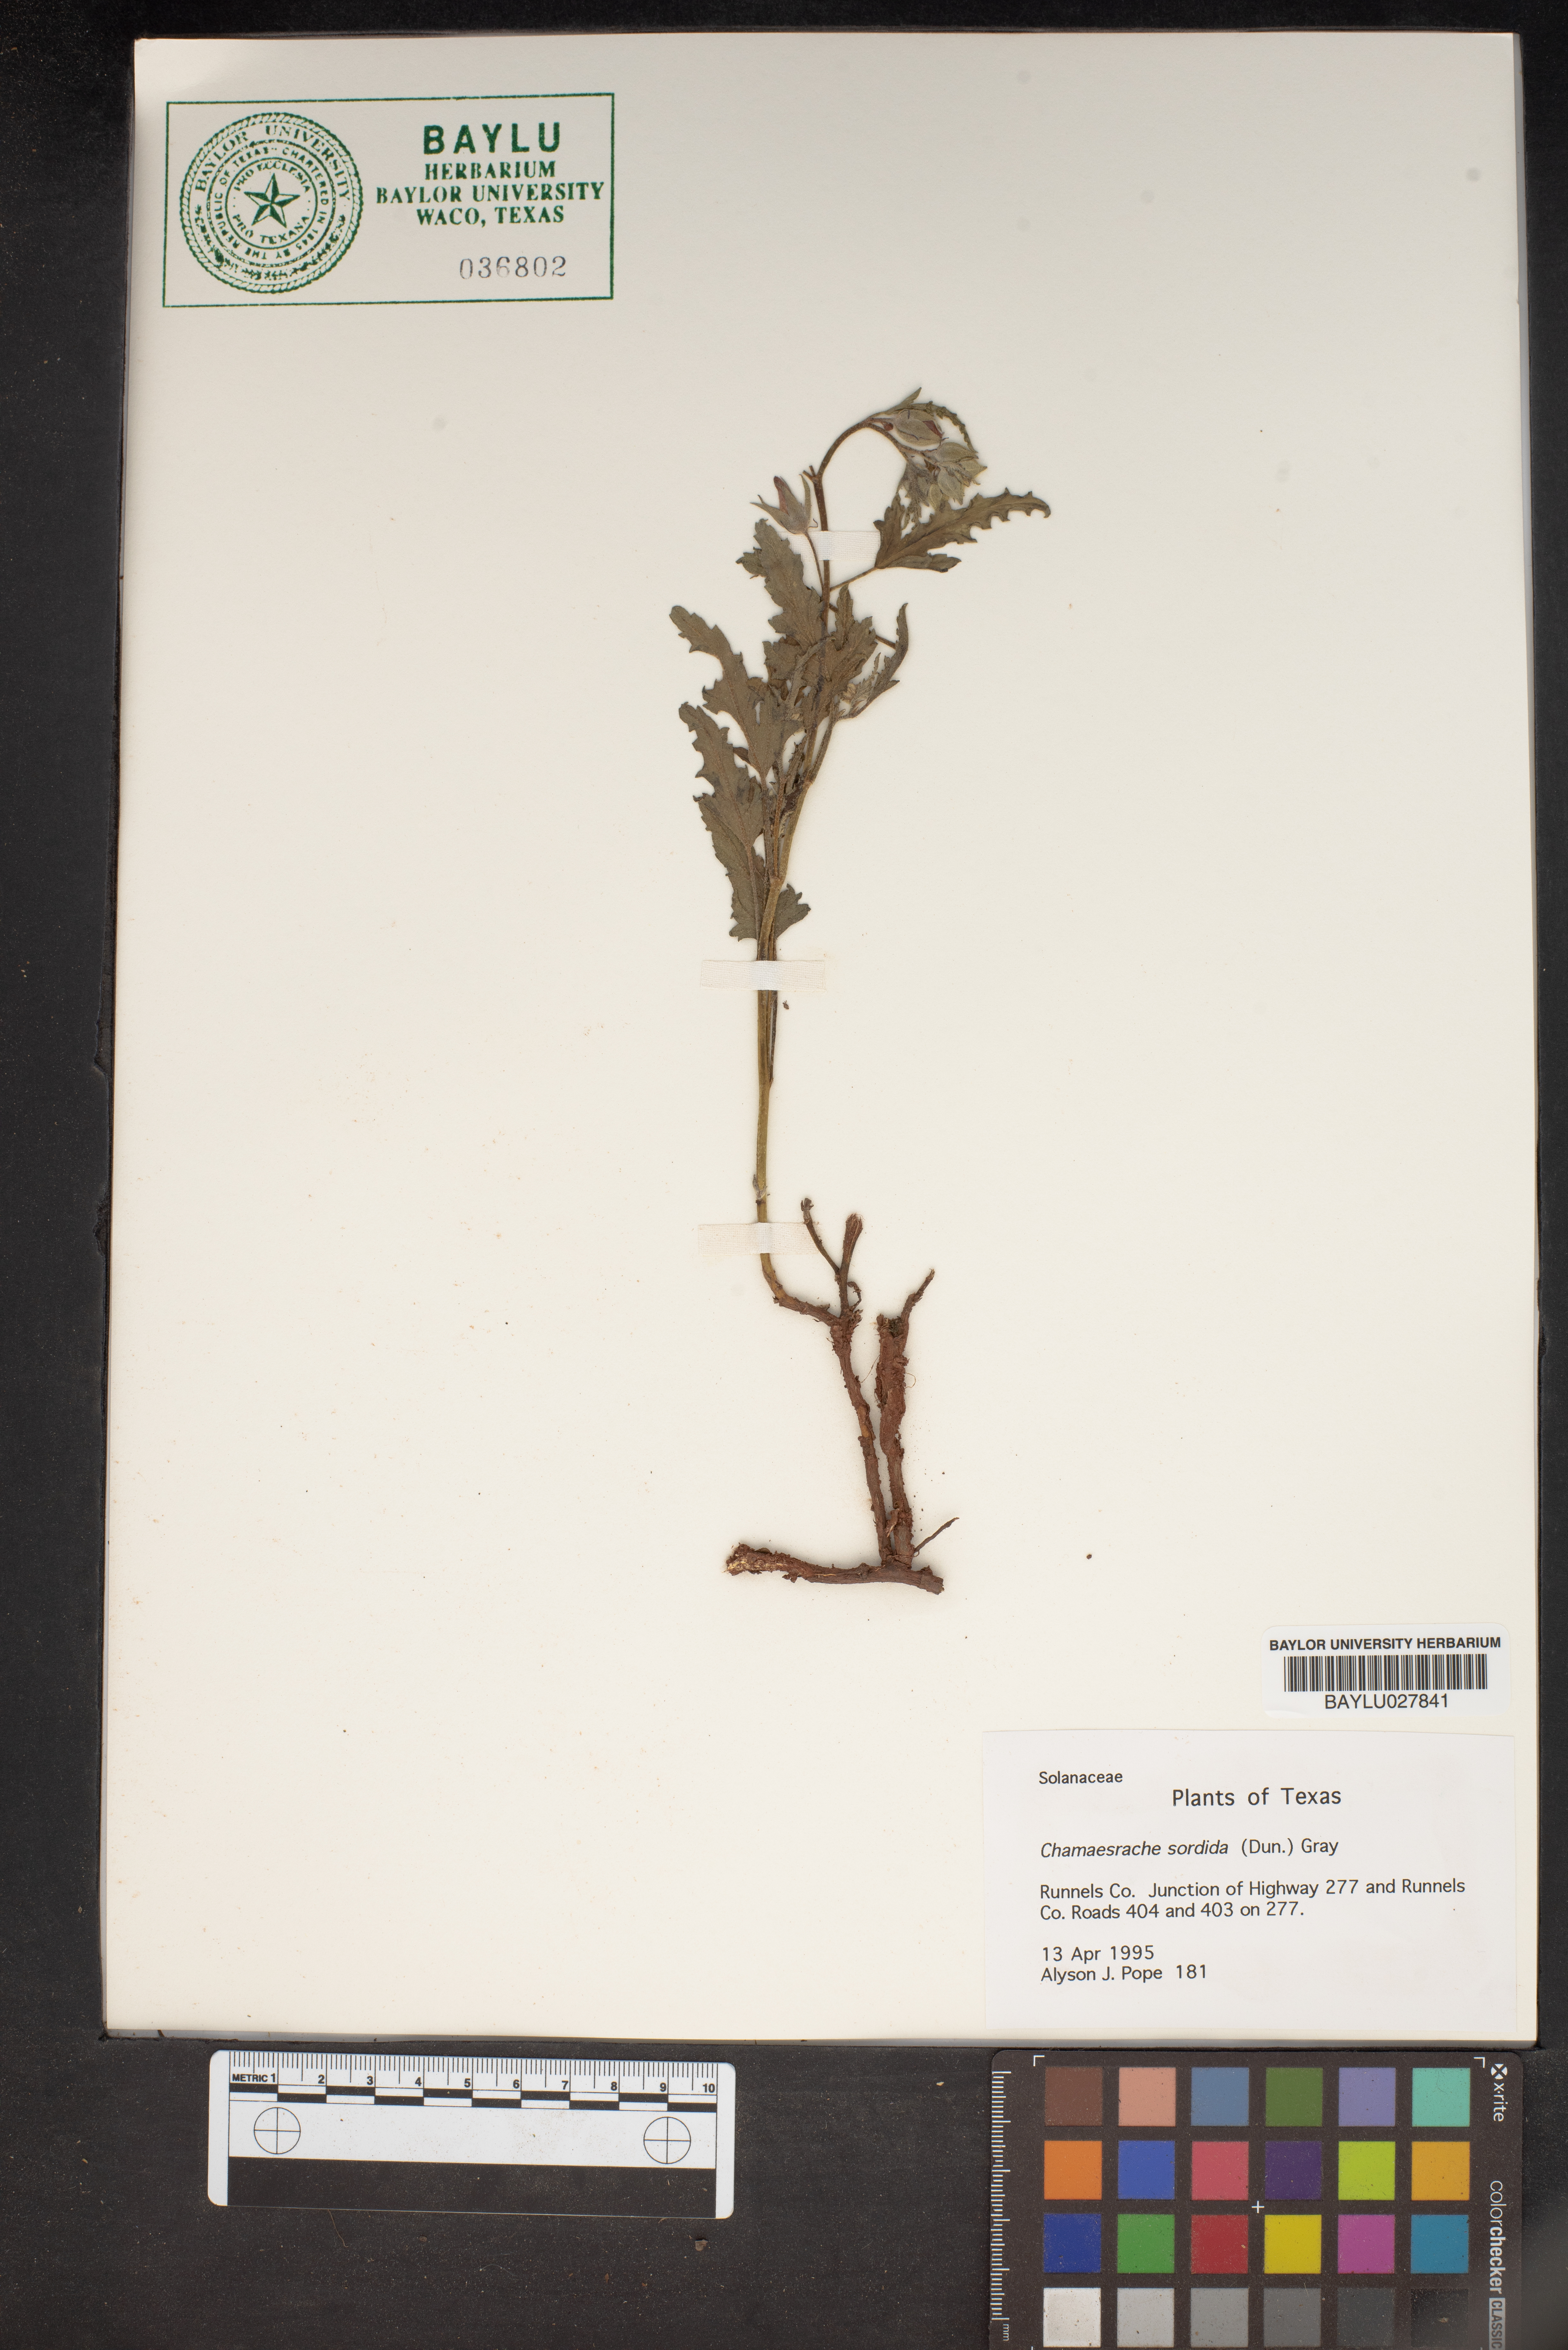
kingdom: Plantae
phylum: Tracheophyta
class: Magnoliopsida
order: Solanales
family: Solanaceae
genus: Chamaesaracha
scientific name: Chamaesaracha sordida
